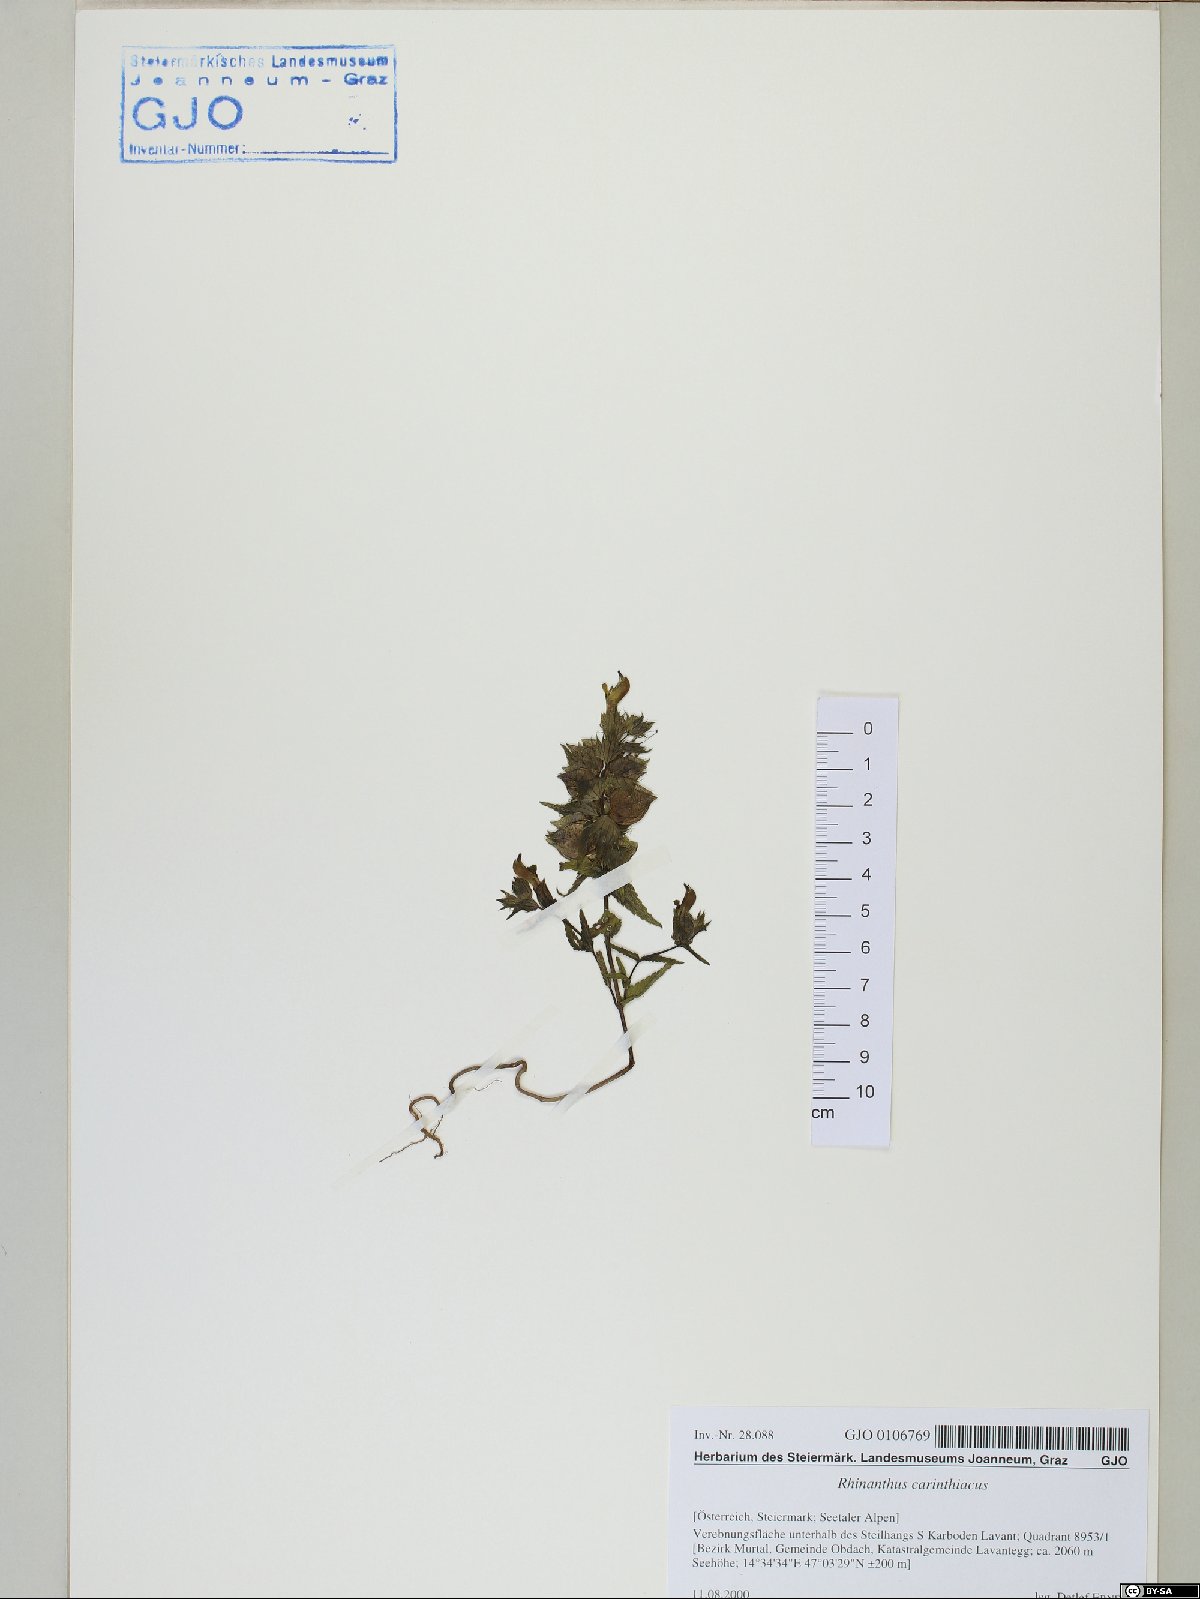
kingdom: Plantae
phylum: Tracheophyta
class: Magnoliopsida
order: Lamiales
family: Orobanchaceae
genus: Rhinanthus
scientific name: Rhinanthus carinthiacus
